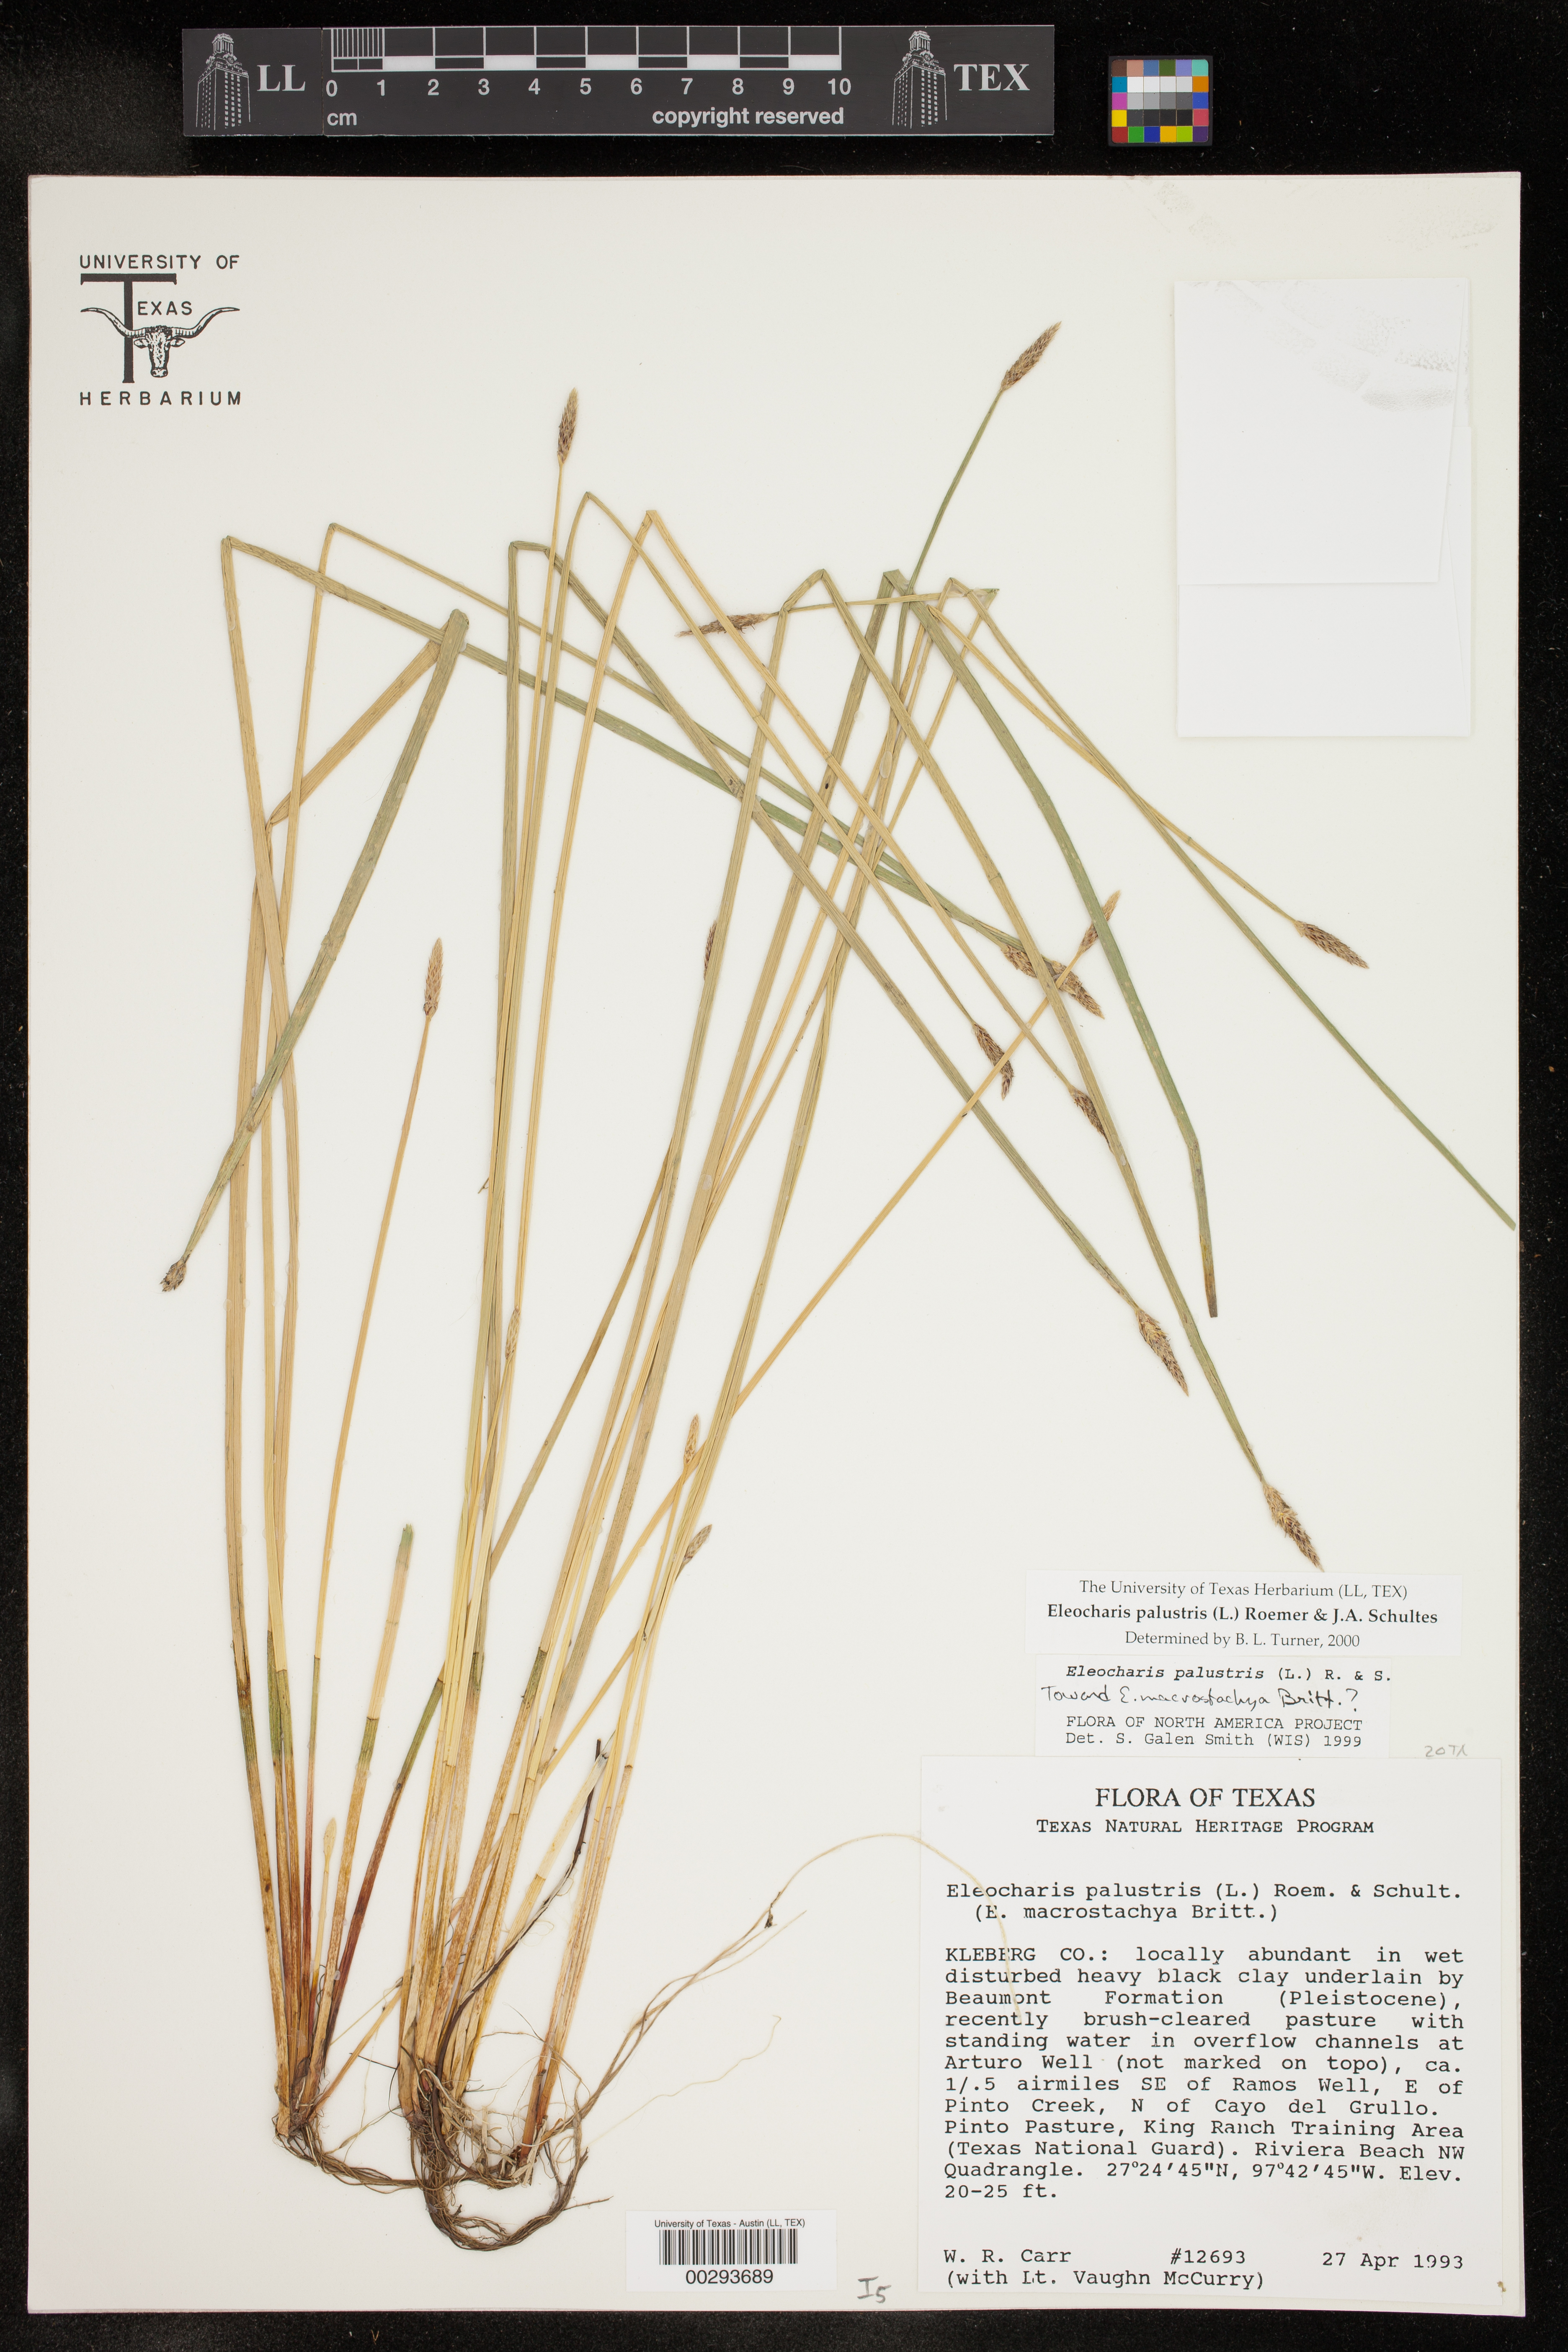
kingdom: Plantae
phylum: Tracheophyta
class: Liliopsida
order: Poales
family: Cyperaceae
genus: Eleocharis
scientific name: Eleocharis palustris
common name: Common spike-rush
